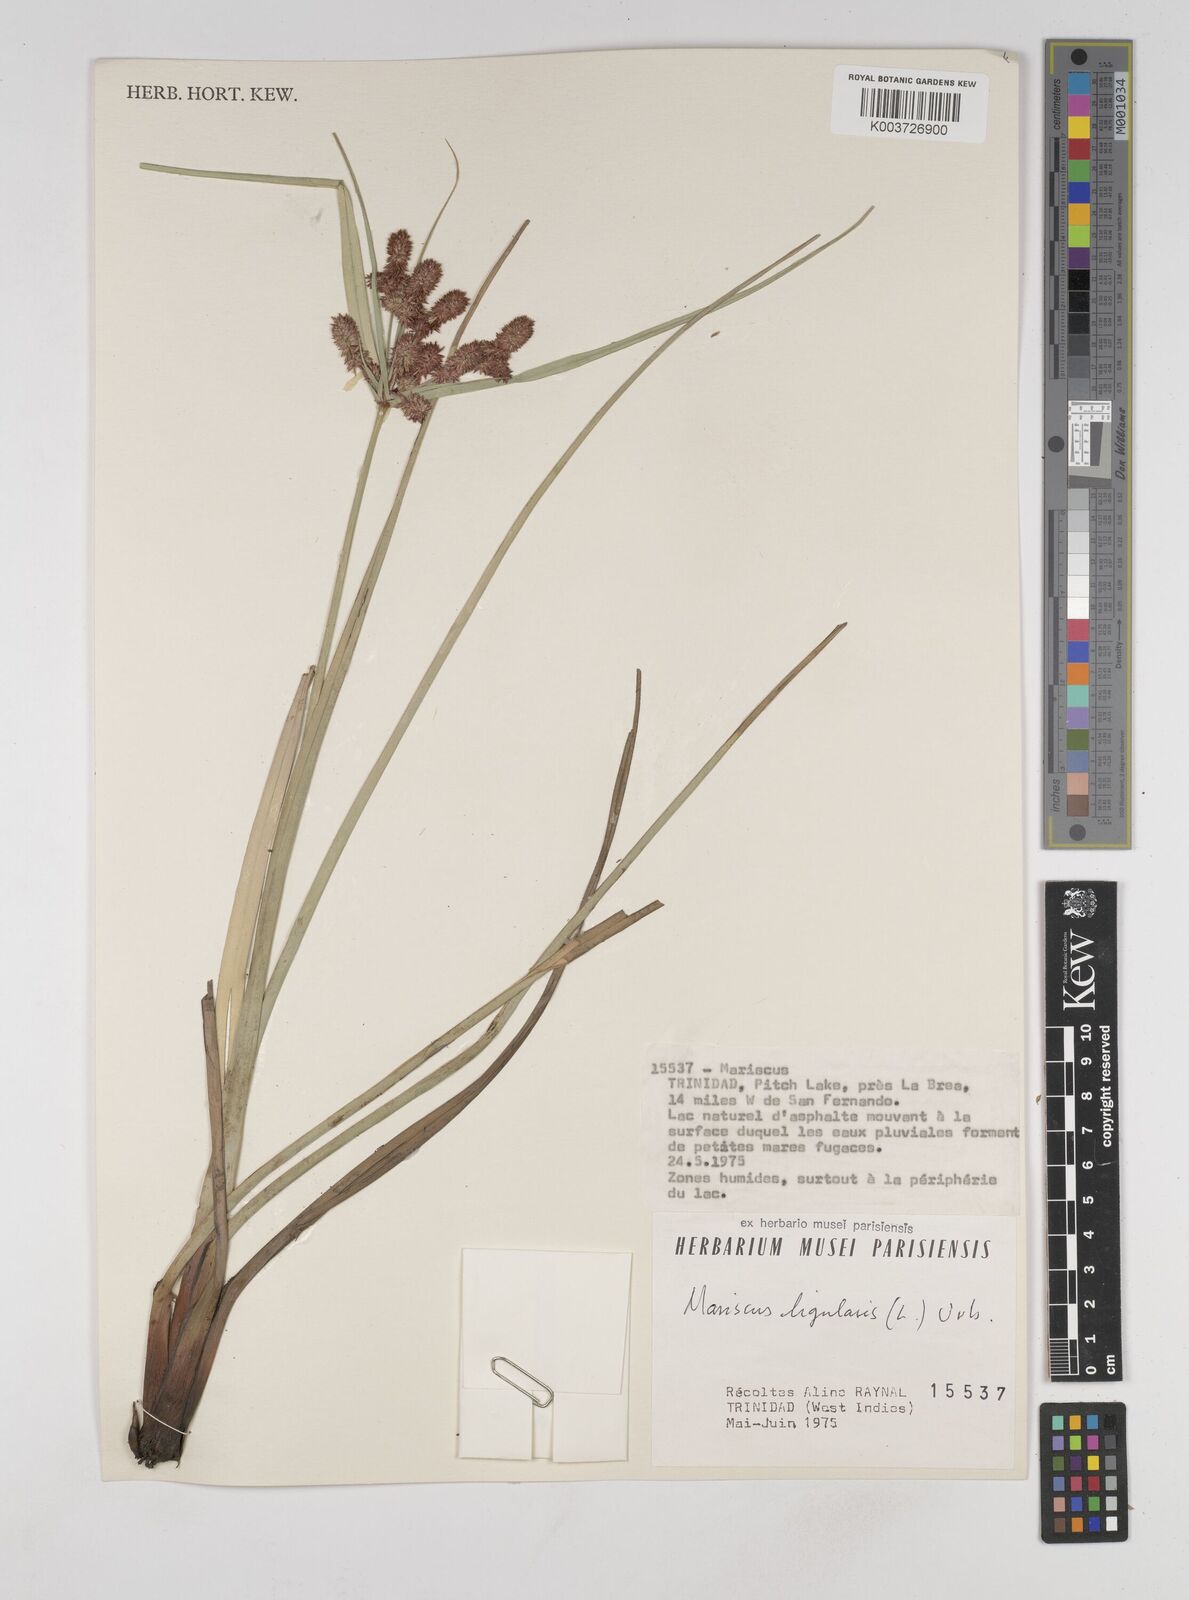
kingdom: Plantae
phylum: Tracheophyta
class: Liliopsida
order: Poales
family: Cyperaceae
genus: Cyperus
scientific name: Cyperus ligularis
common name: Swamp flat sedge
